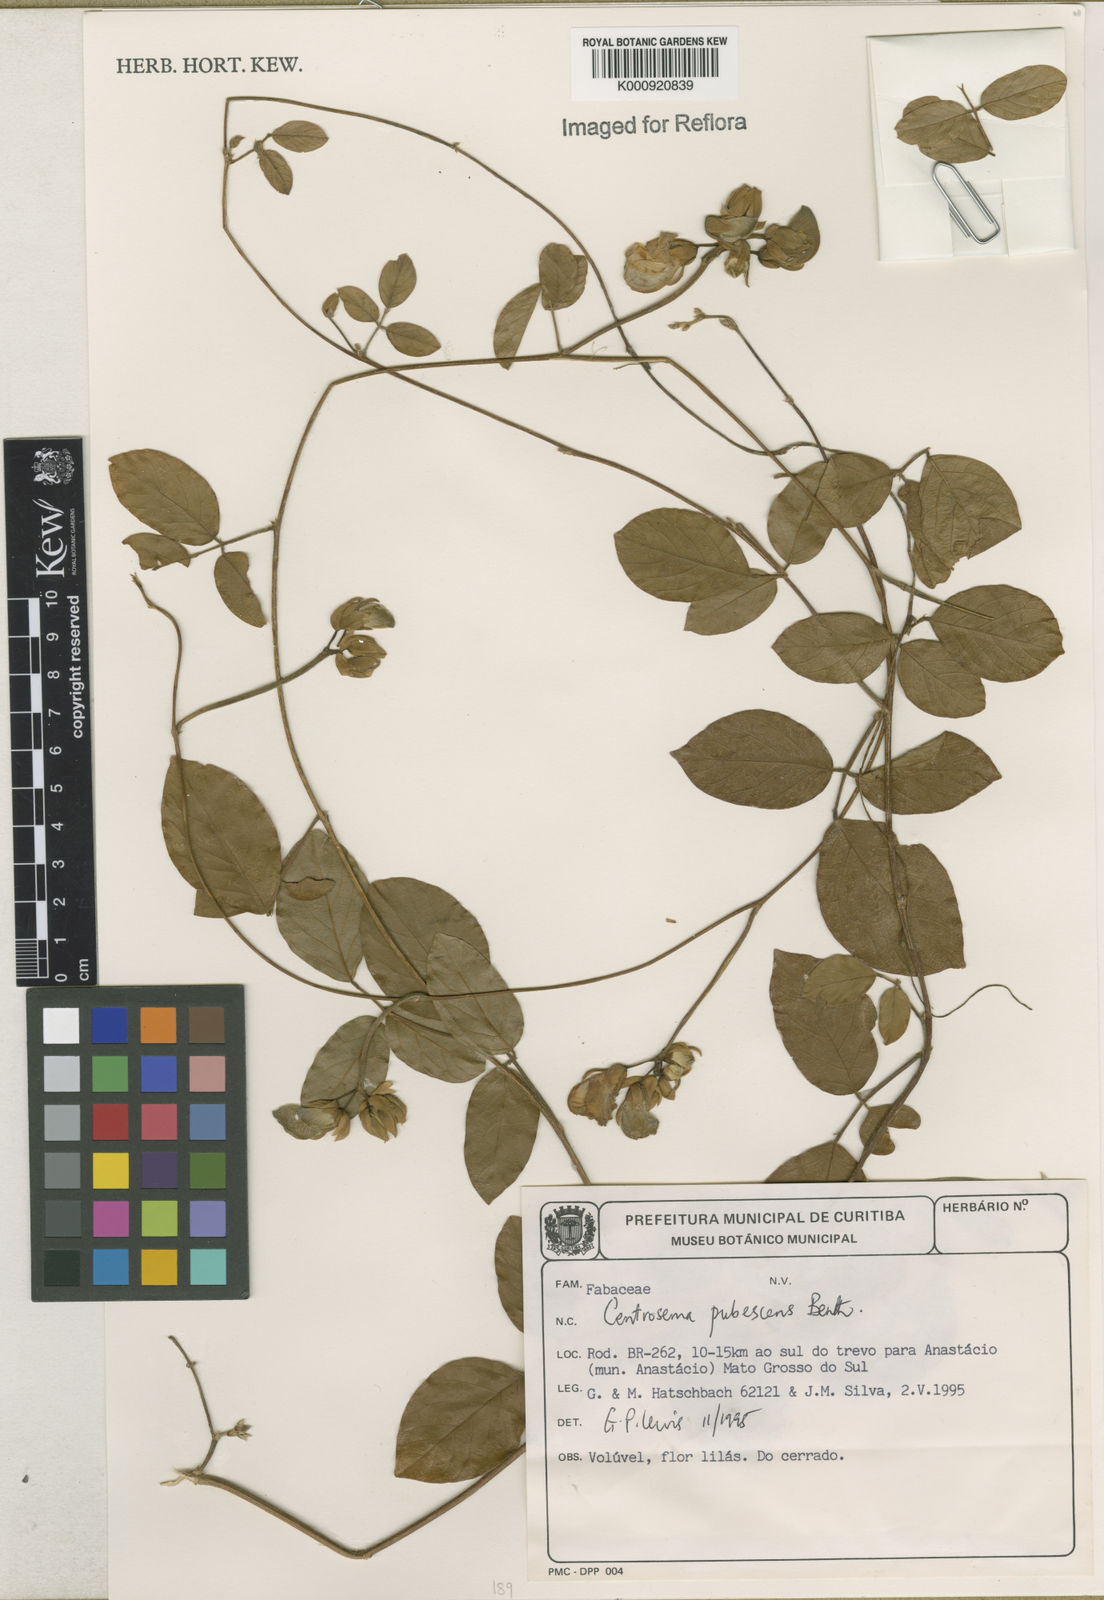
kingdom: Plantae
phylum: Tracheophyta
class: Magnoliopsida
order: Fabales
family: Fabaceae
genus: Centrosema
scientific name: Centrosema pubescens
